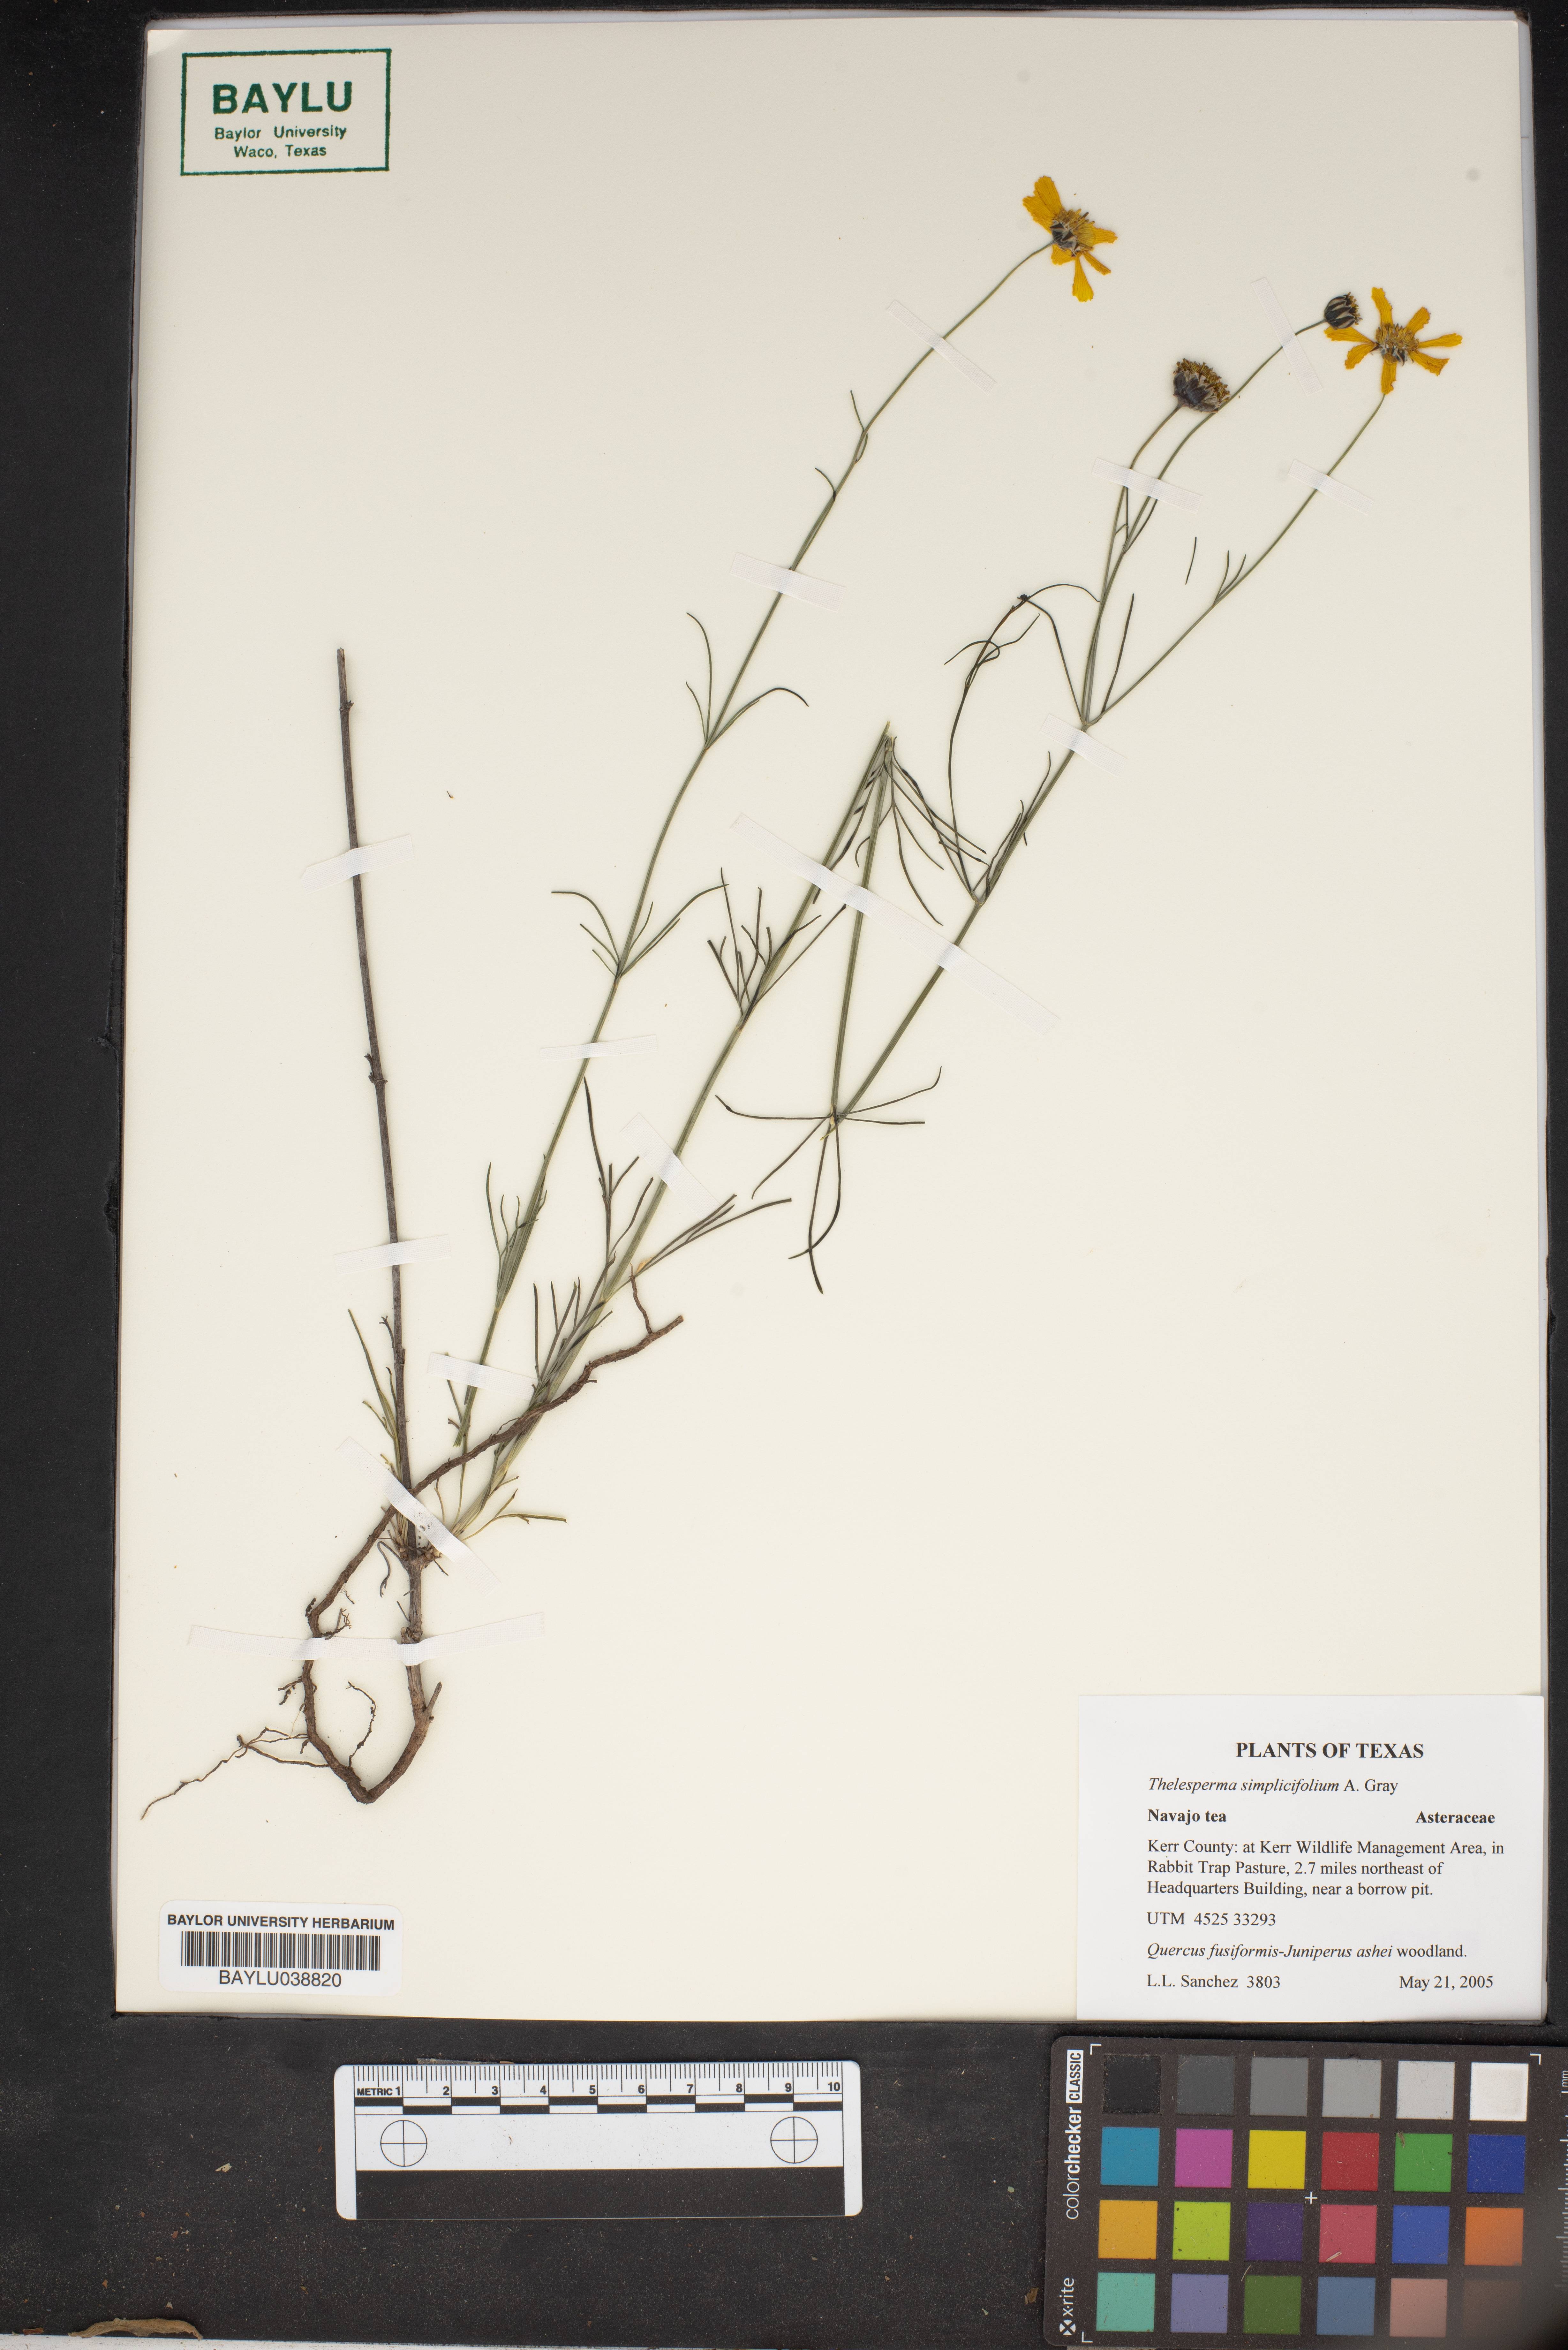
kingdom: Plantae
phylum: Tracheophyta
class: Magnoliopsida
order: Asterales
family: Asteraceae
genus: Thelesperma
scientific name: Thelesperma simplicifolium
